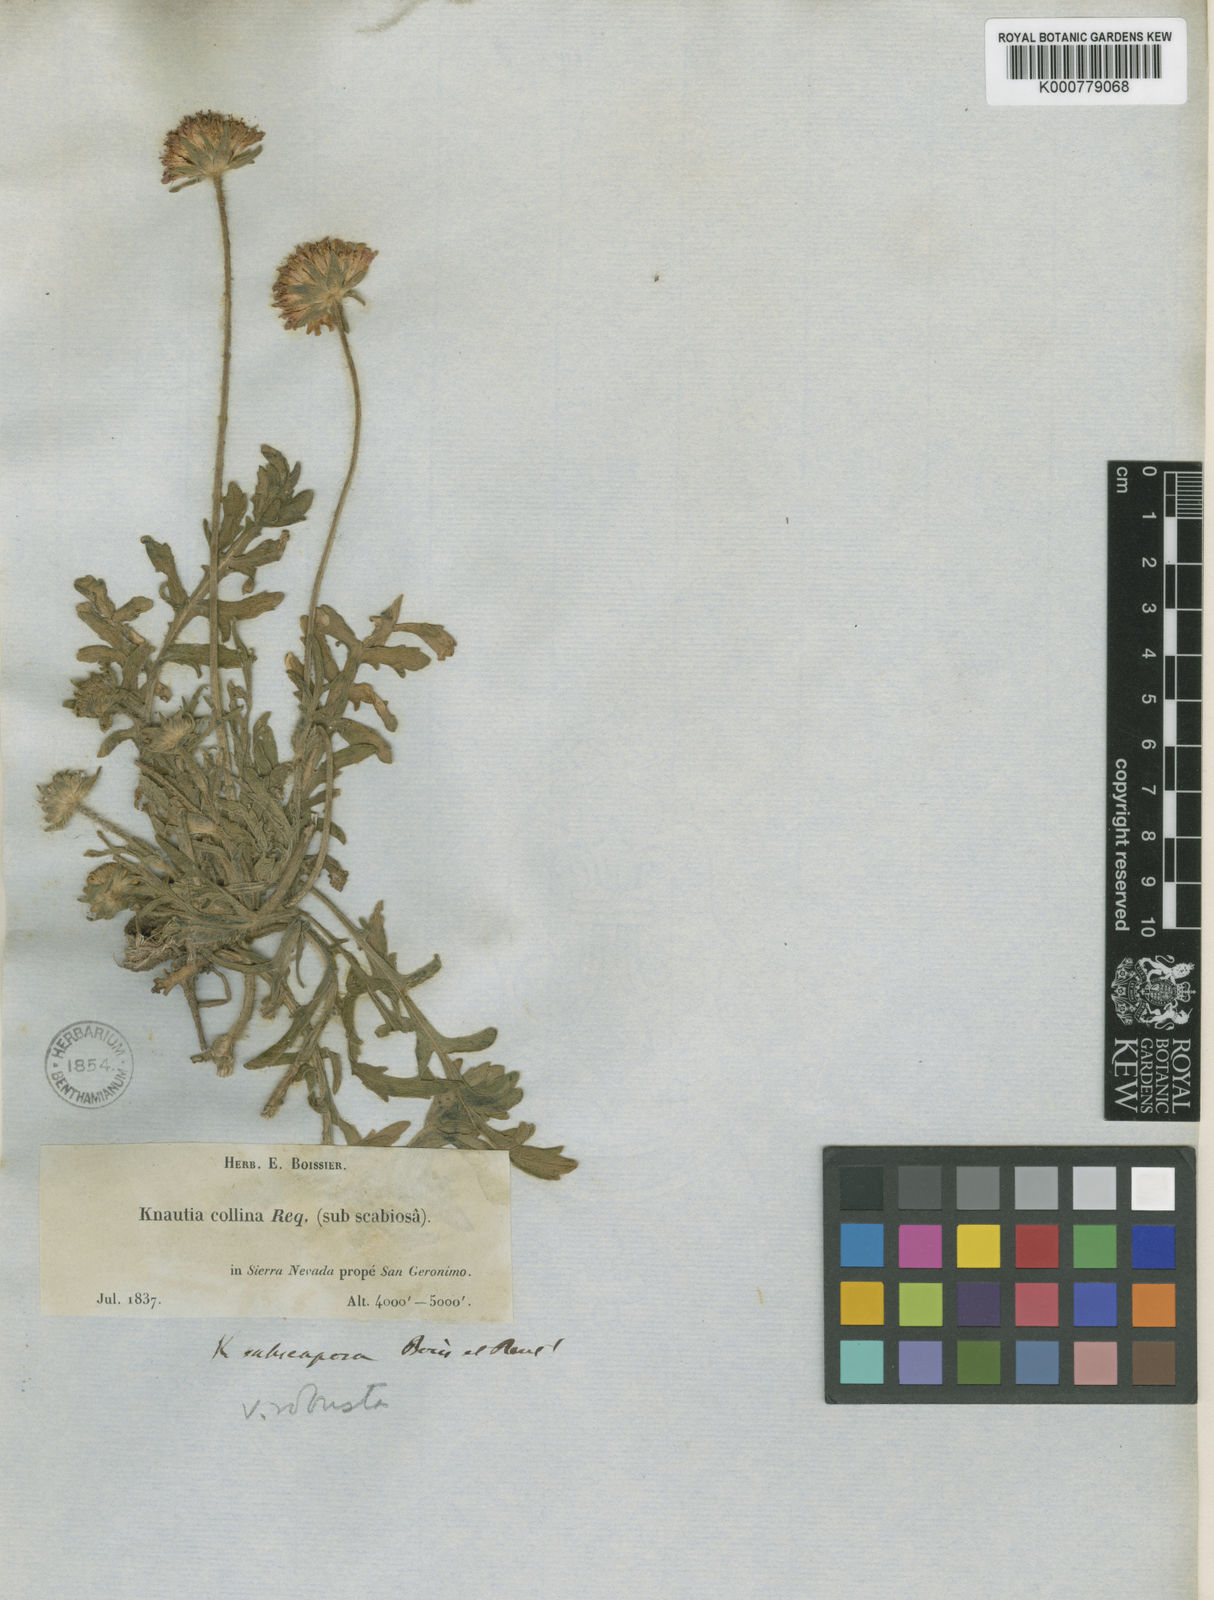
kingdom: Plantae
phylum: Tracheophyta
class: Magnoliopsida
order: Dipsacales
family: Caprifoliaceae
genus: Knautia
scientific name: Knautia subscaposa
